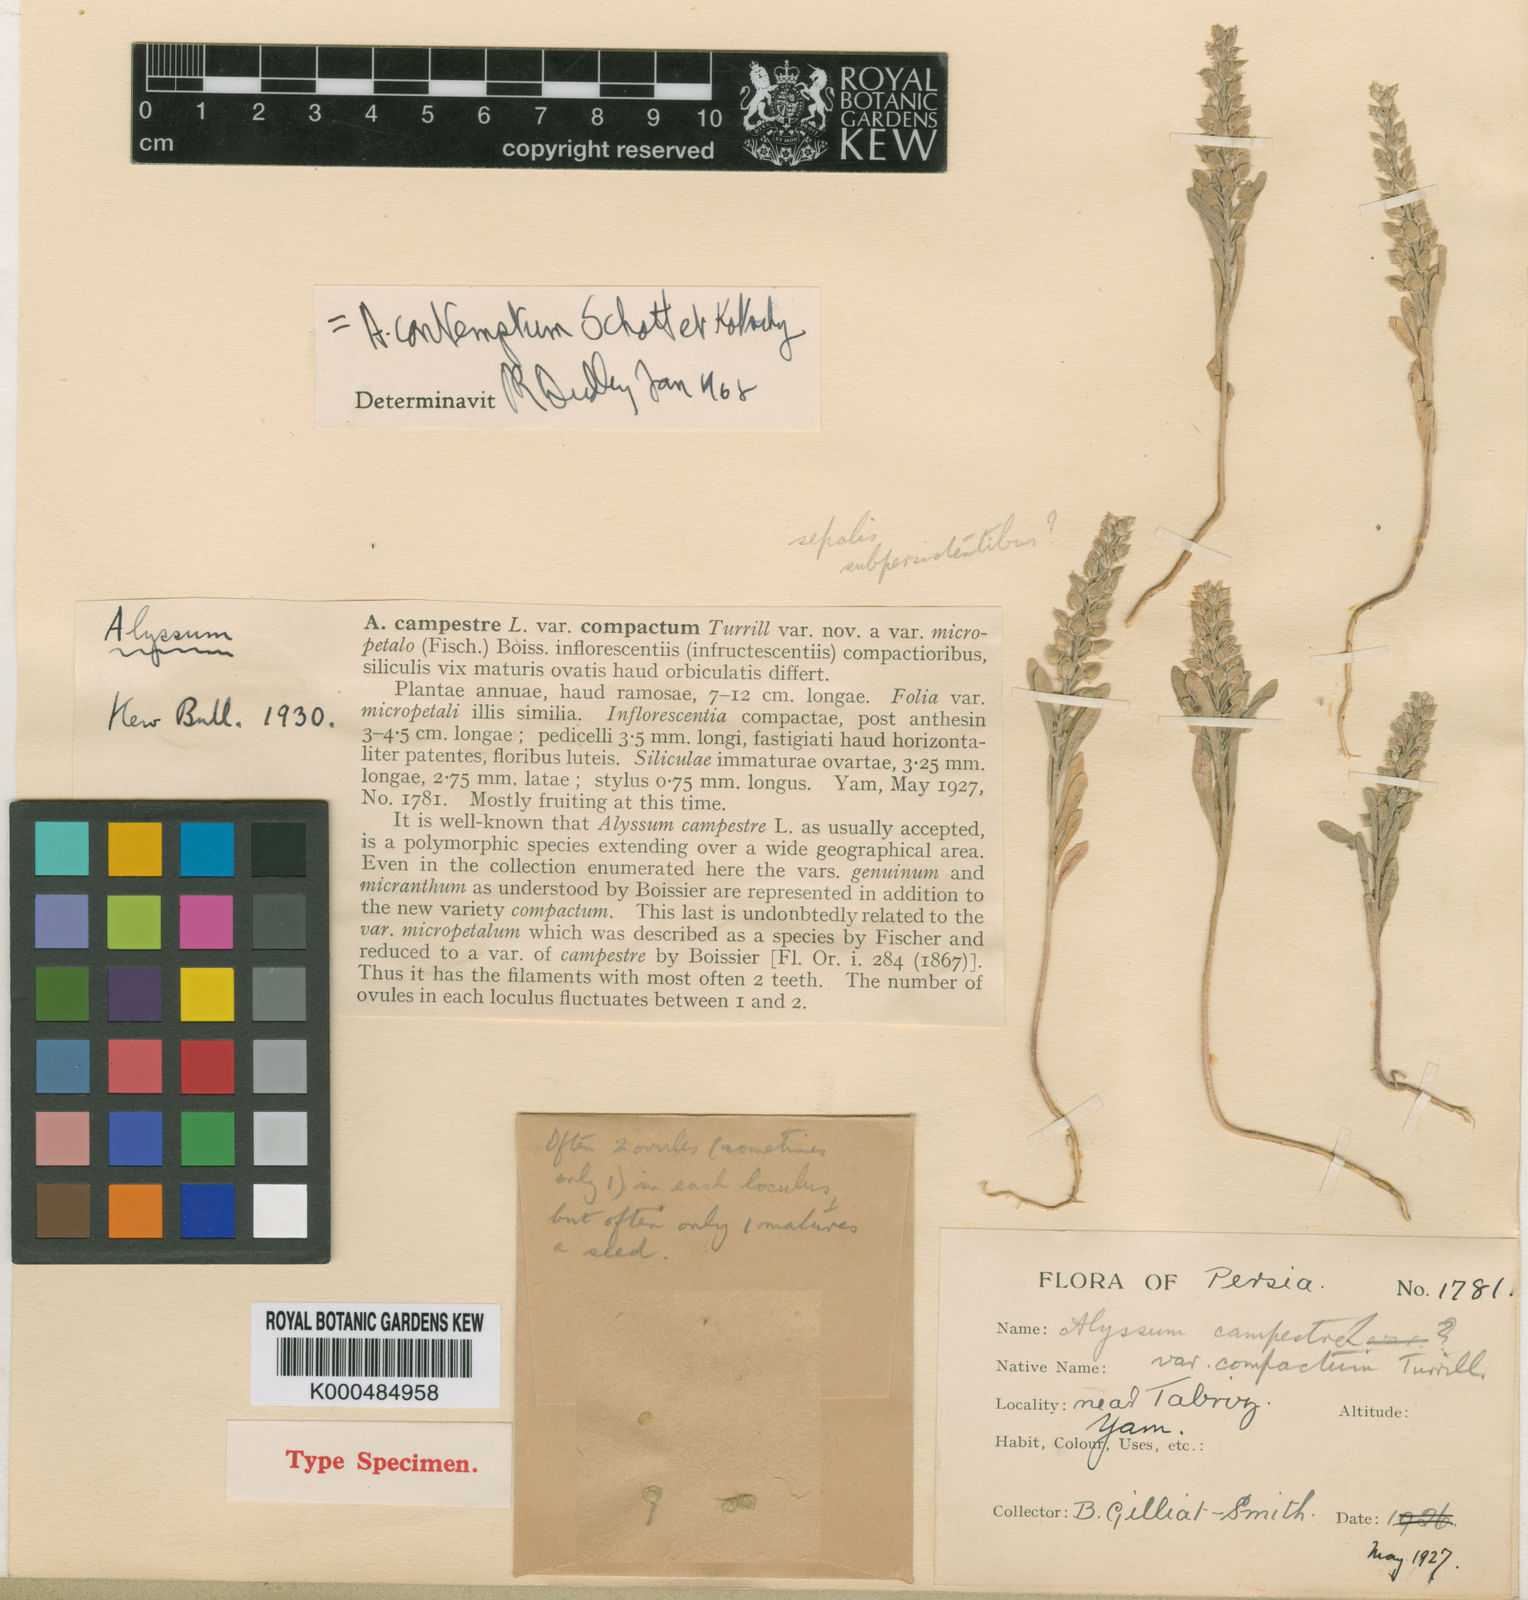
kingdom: Plantae
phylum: Tracheophyta
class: Magnoliopsida
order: Brassicales
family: Brassicaceae
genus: Alyssum
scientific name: Alyssum contemptum
